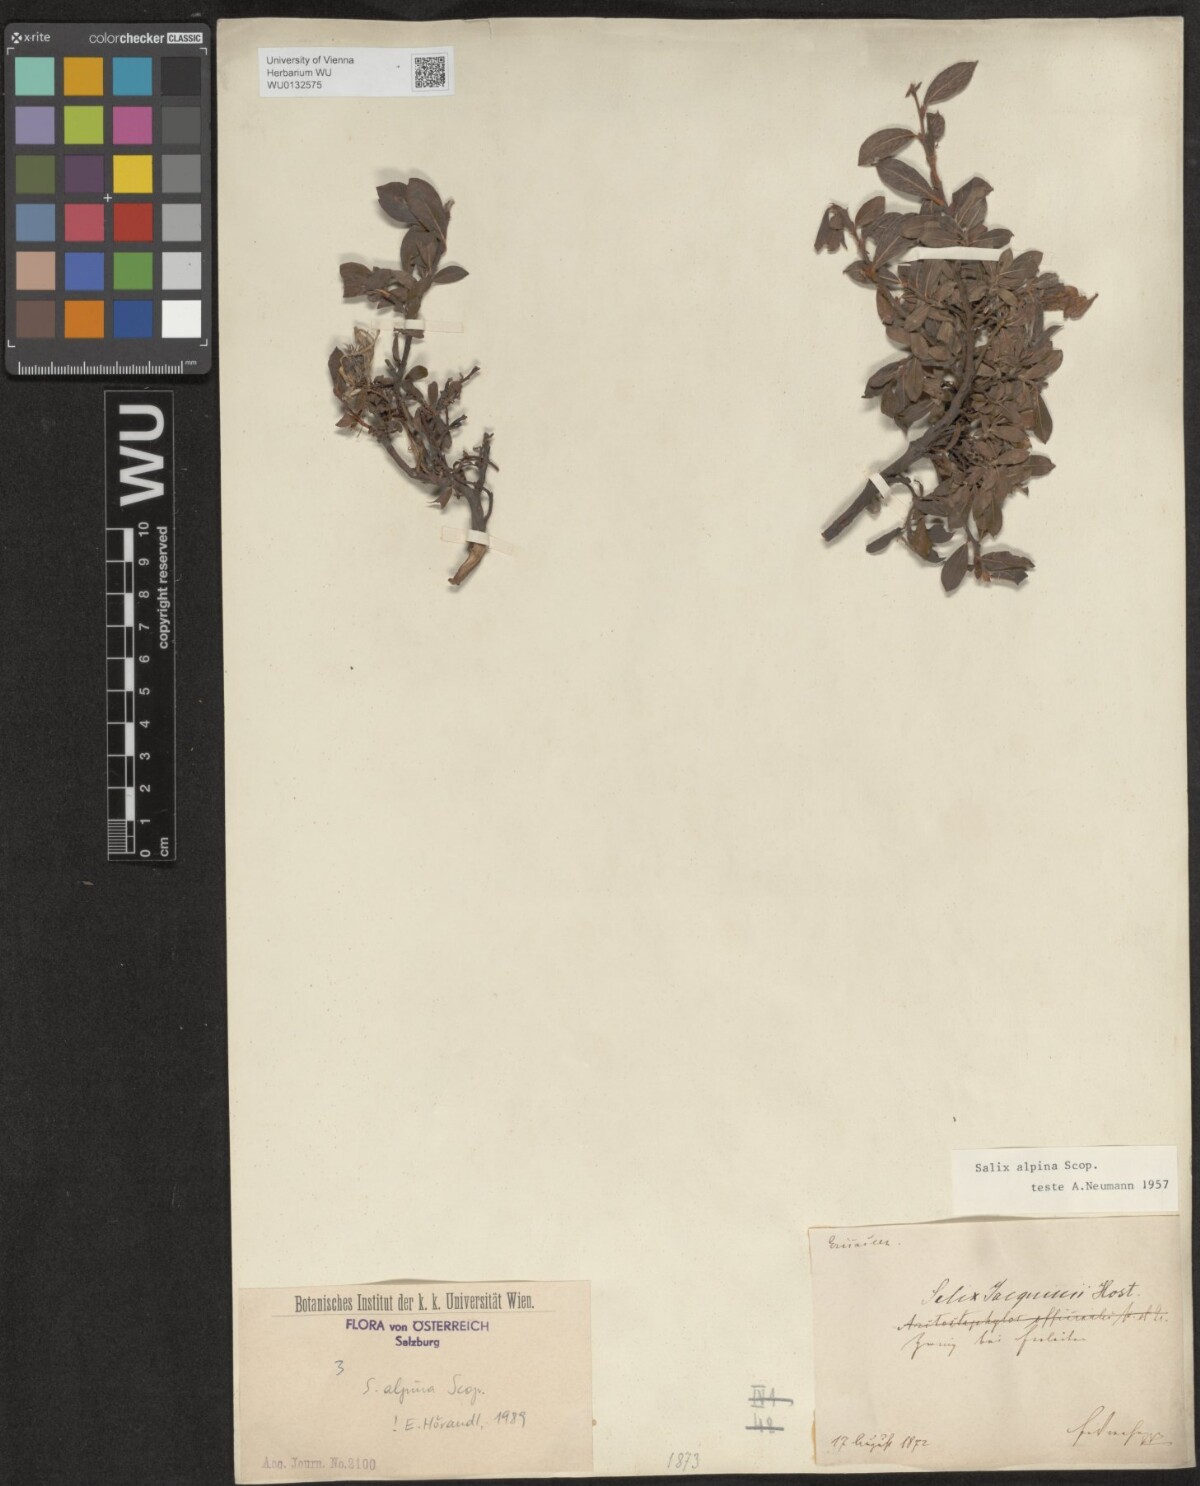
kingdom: Plantae
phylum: Tracheophyta
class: Magnoliopsida
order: Malpighiales
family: Salicaceae
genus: Salix
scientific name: Salix alpina
